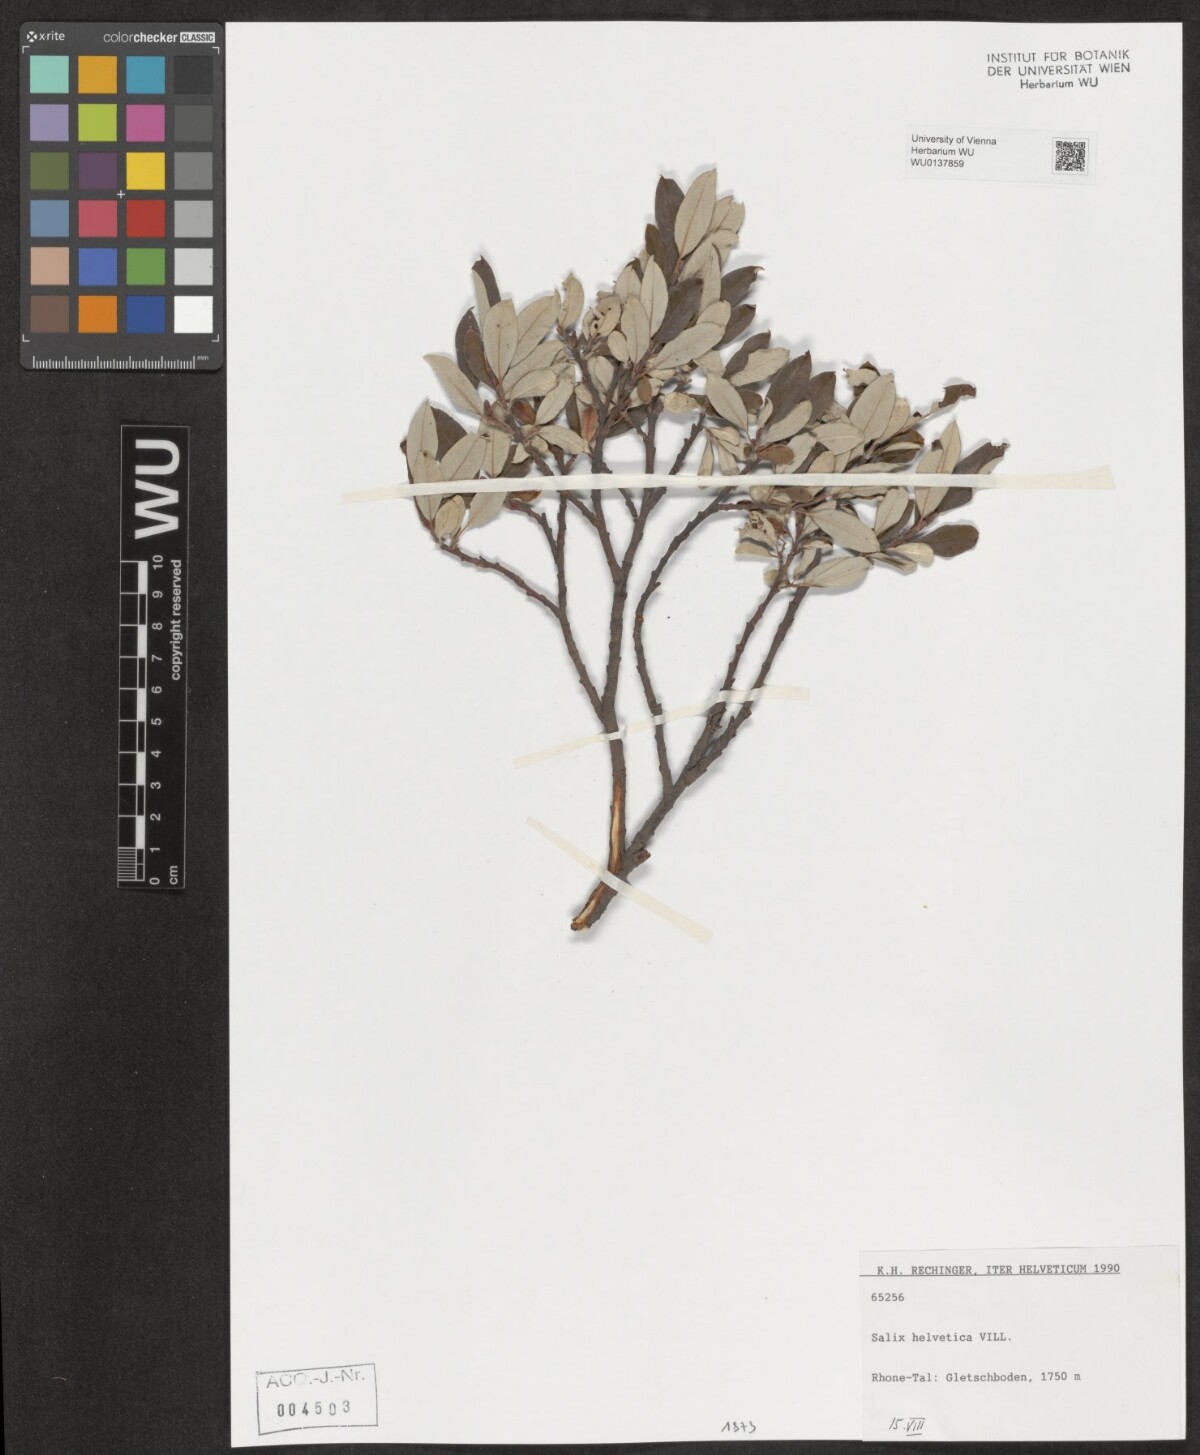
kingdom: Plantae
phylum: Tracheophyta
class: Magnoliopsida
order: Malpighiales
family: Salicaceae
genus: Salix
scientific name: Salix helvetica
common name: Swiss willow
